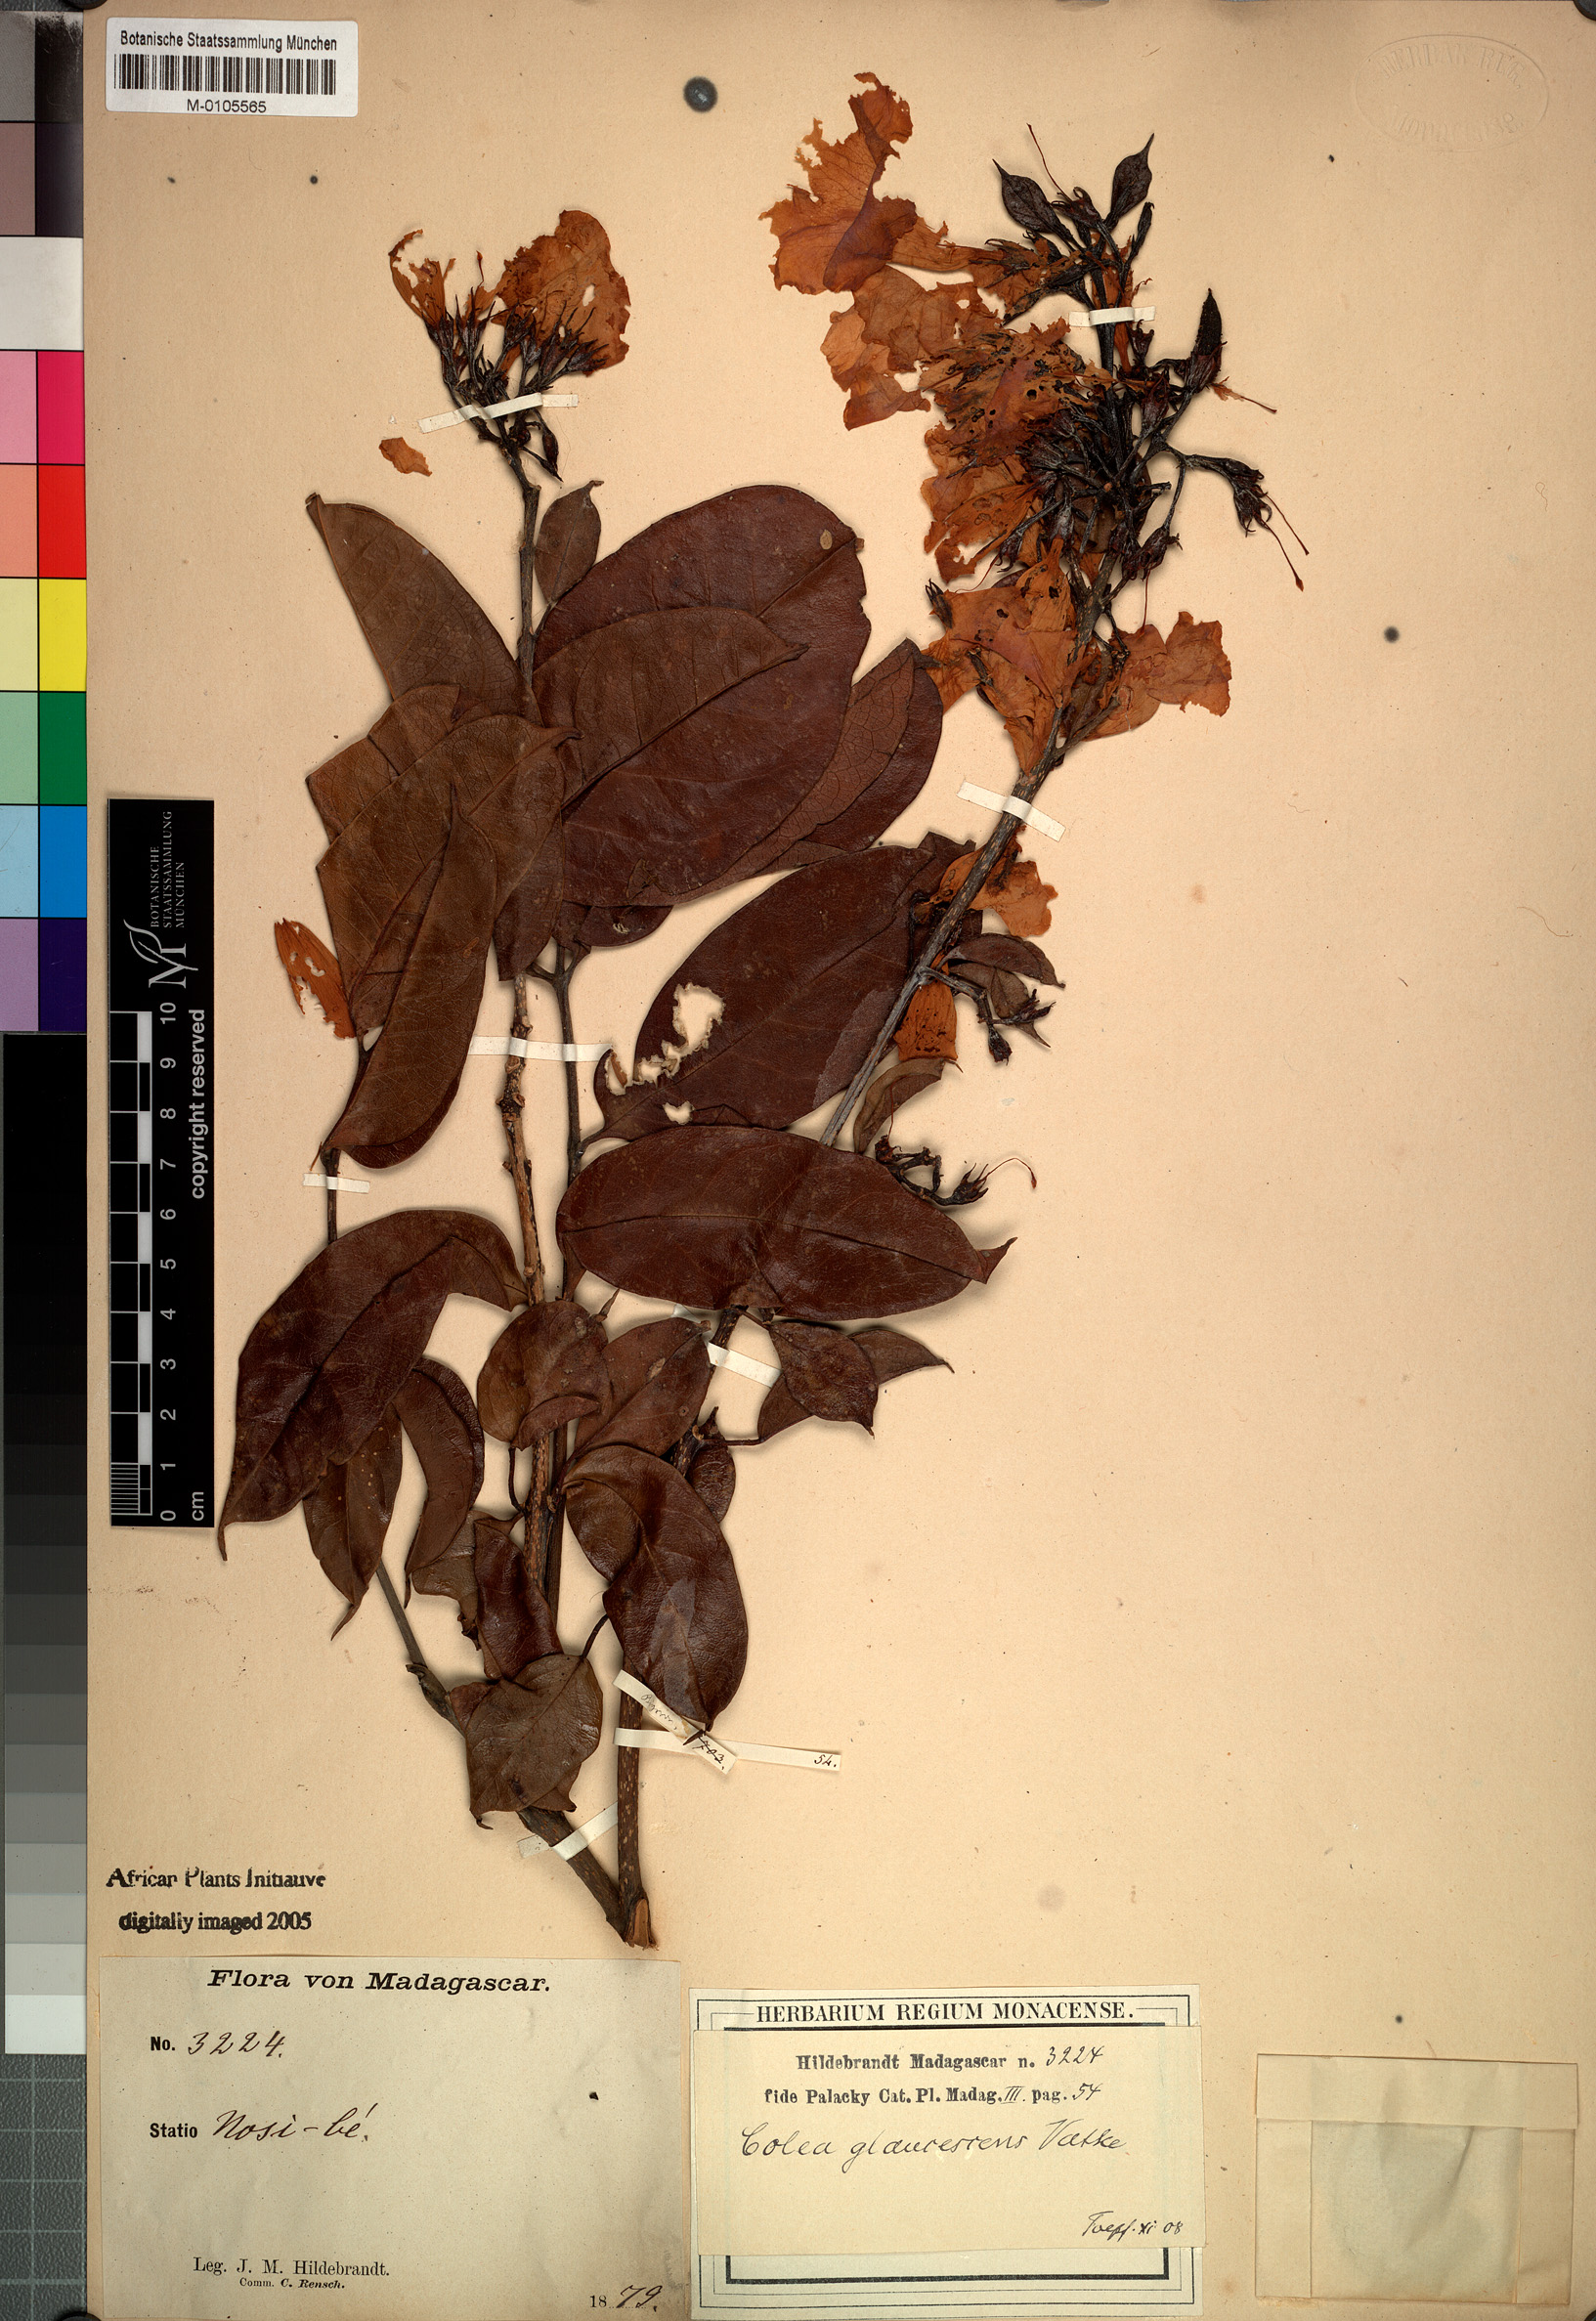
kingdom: Plantae
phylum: Tracheophyta
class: Magnoliopsida
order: Lamiales
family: Bignoniaceae
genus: Colea
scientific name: Colea
